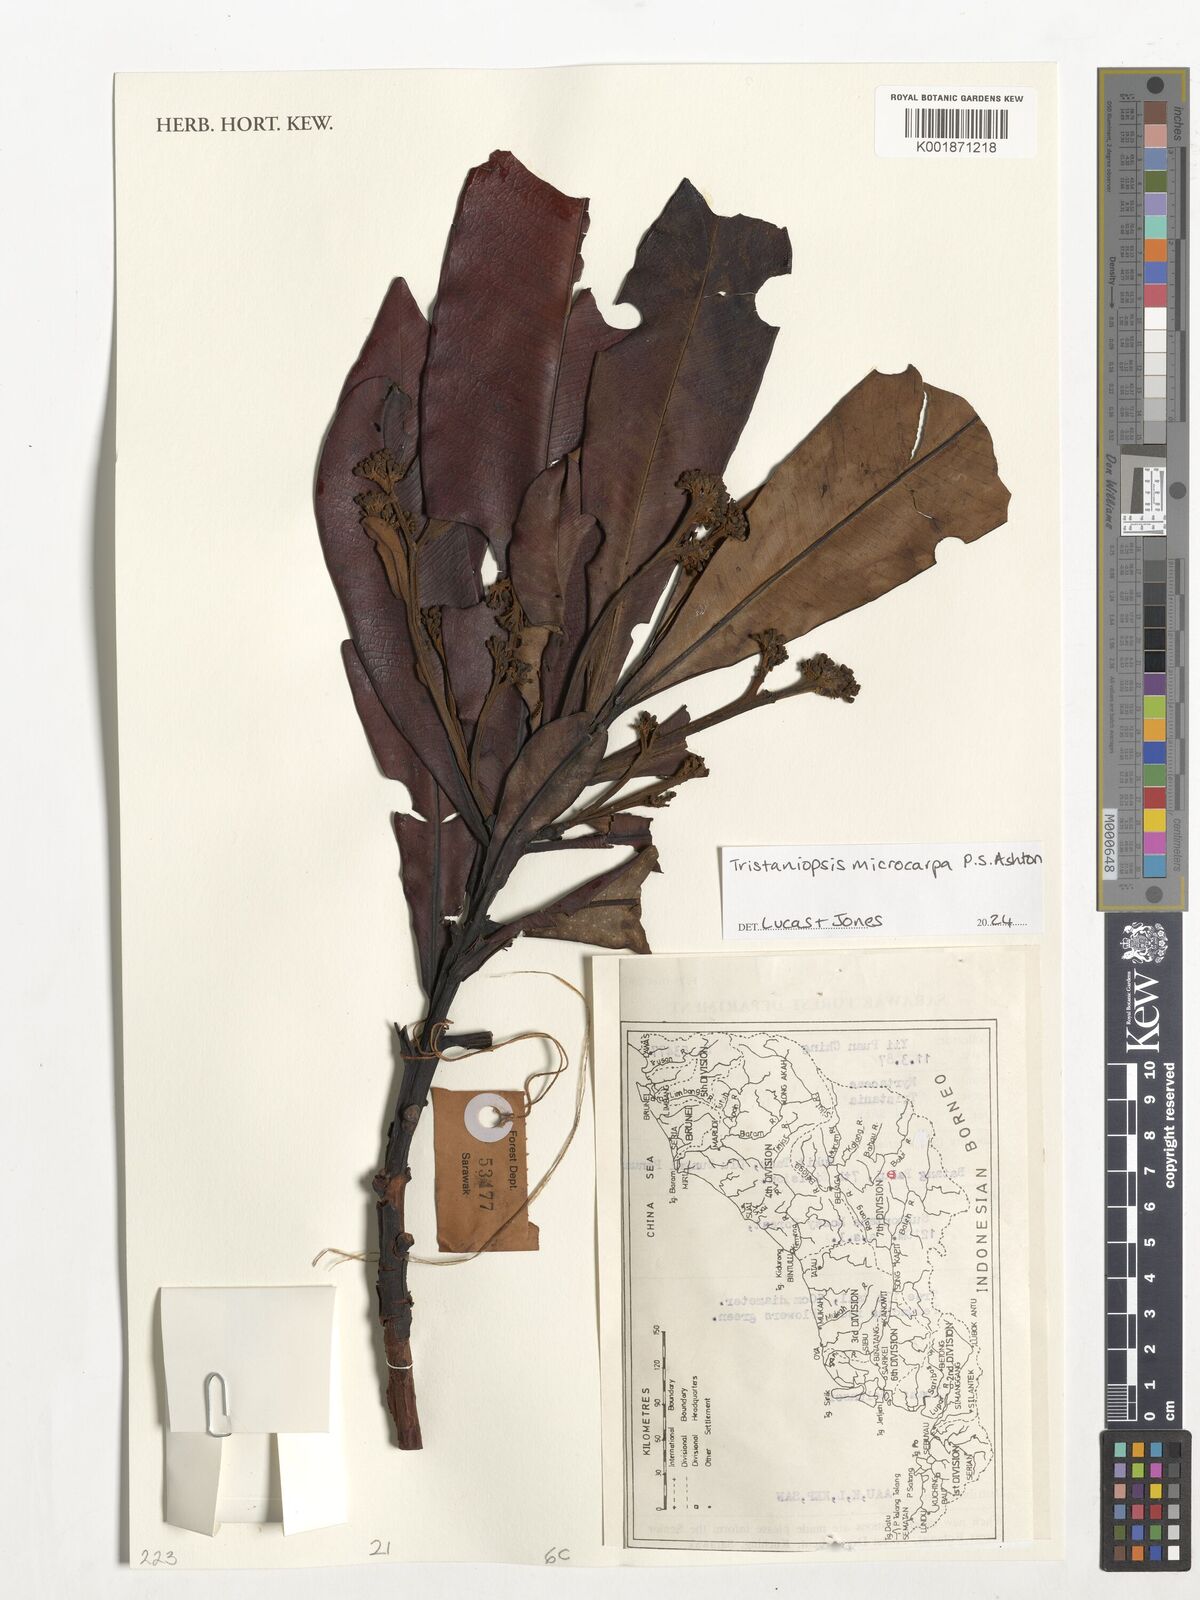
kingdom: Plantae
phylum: Tracheophyta
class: Magnoliopsida
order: Myrtales
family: Myrtaceae
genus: Tristaniopsis
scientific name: Tristaniopsis microcarpa
